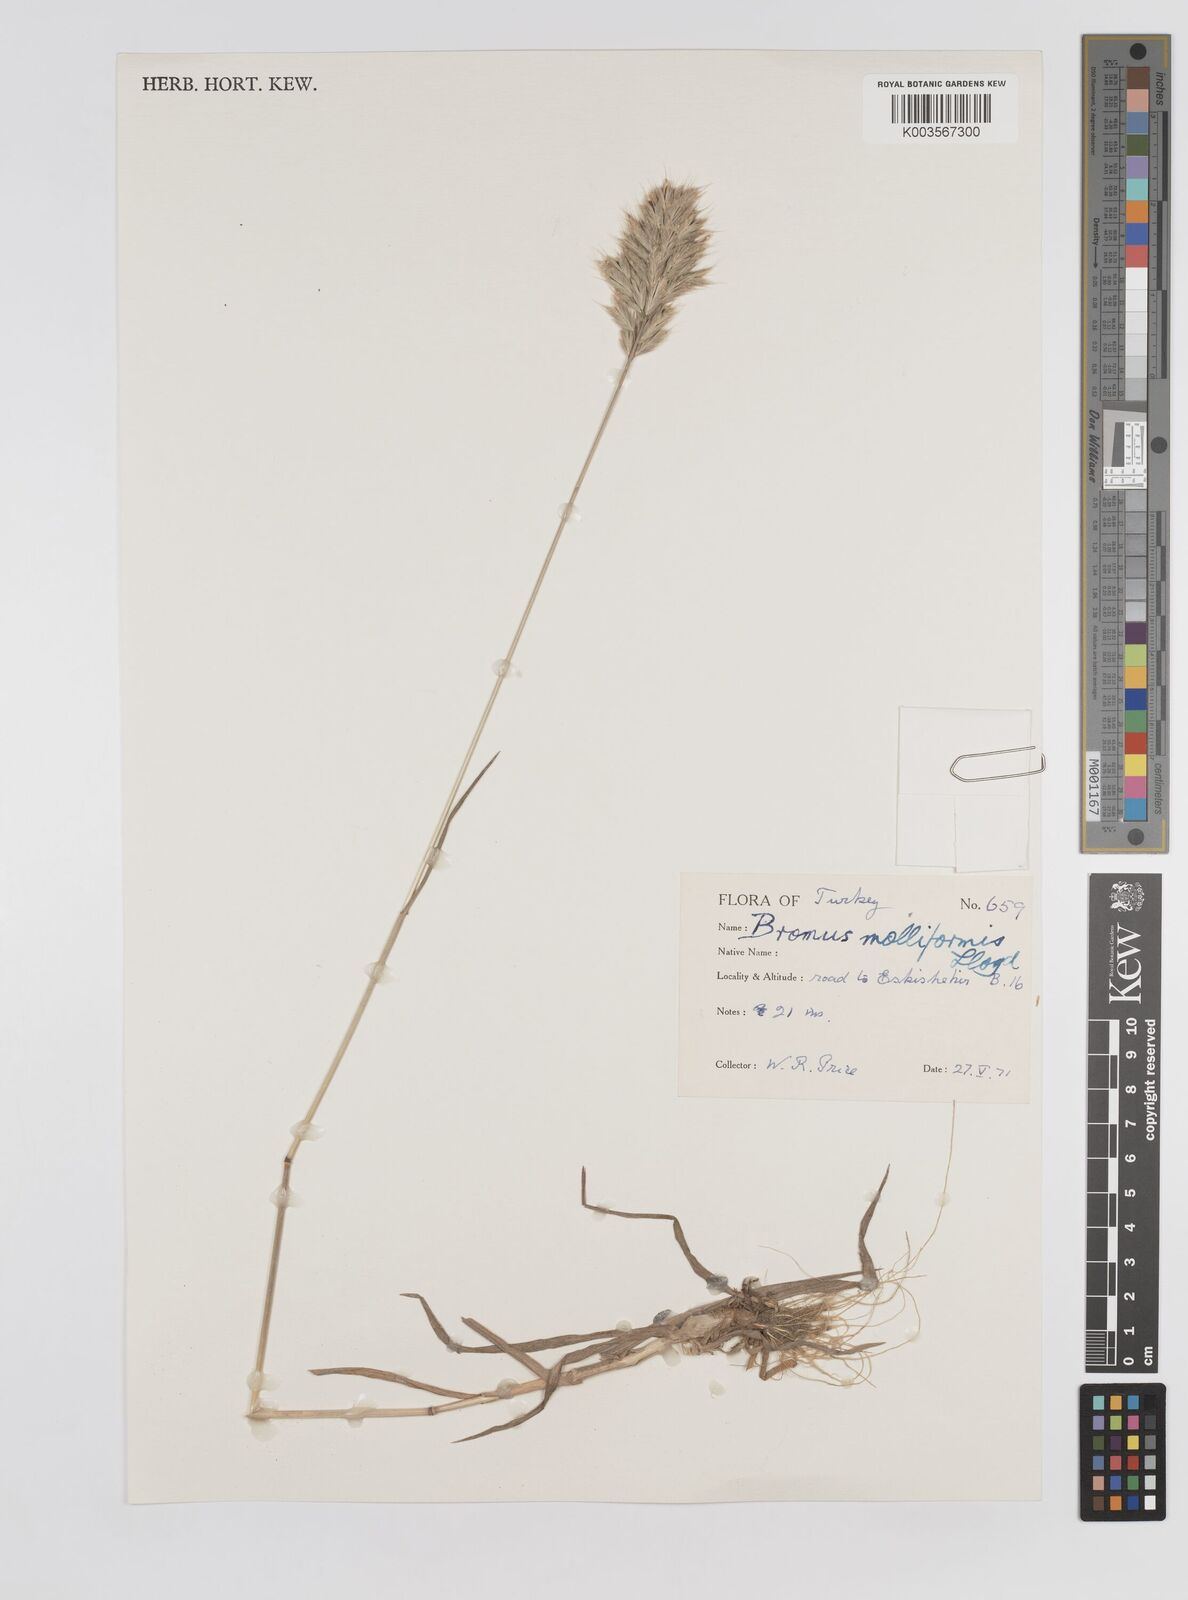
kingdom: Plantae
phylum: Tracheophyta
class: Liliopsida
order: Poales
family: Poaceae
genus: Bromus
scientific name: Bromus hordeaceus
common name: Soft brome
